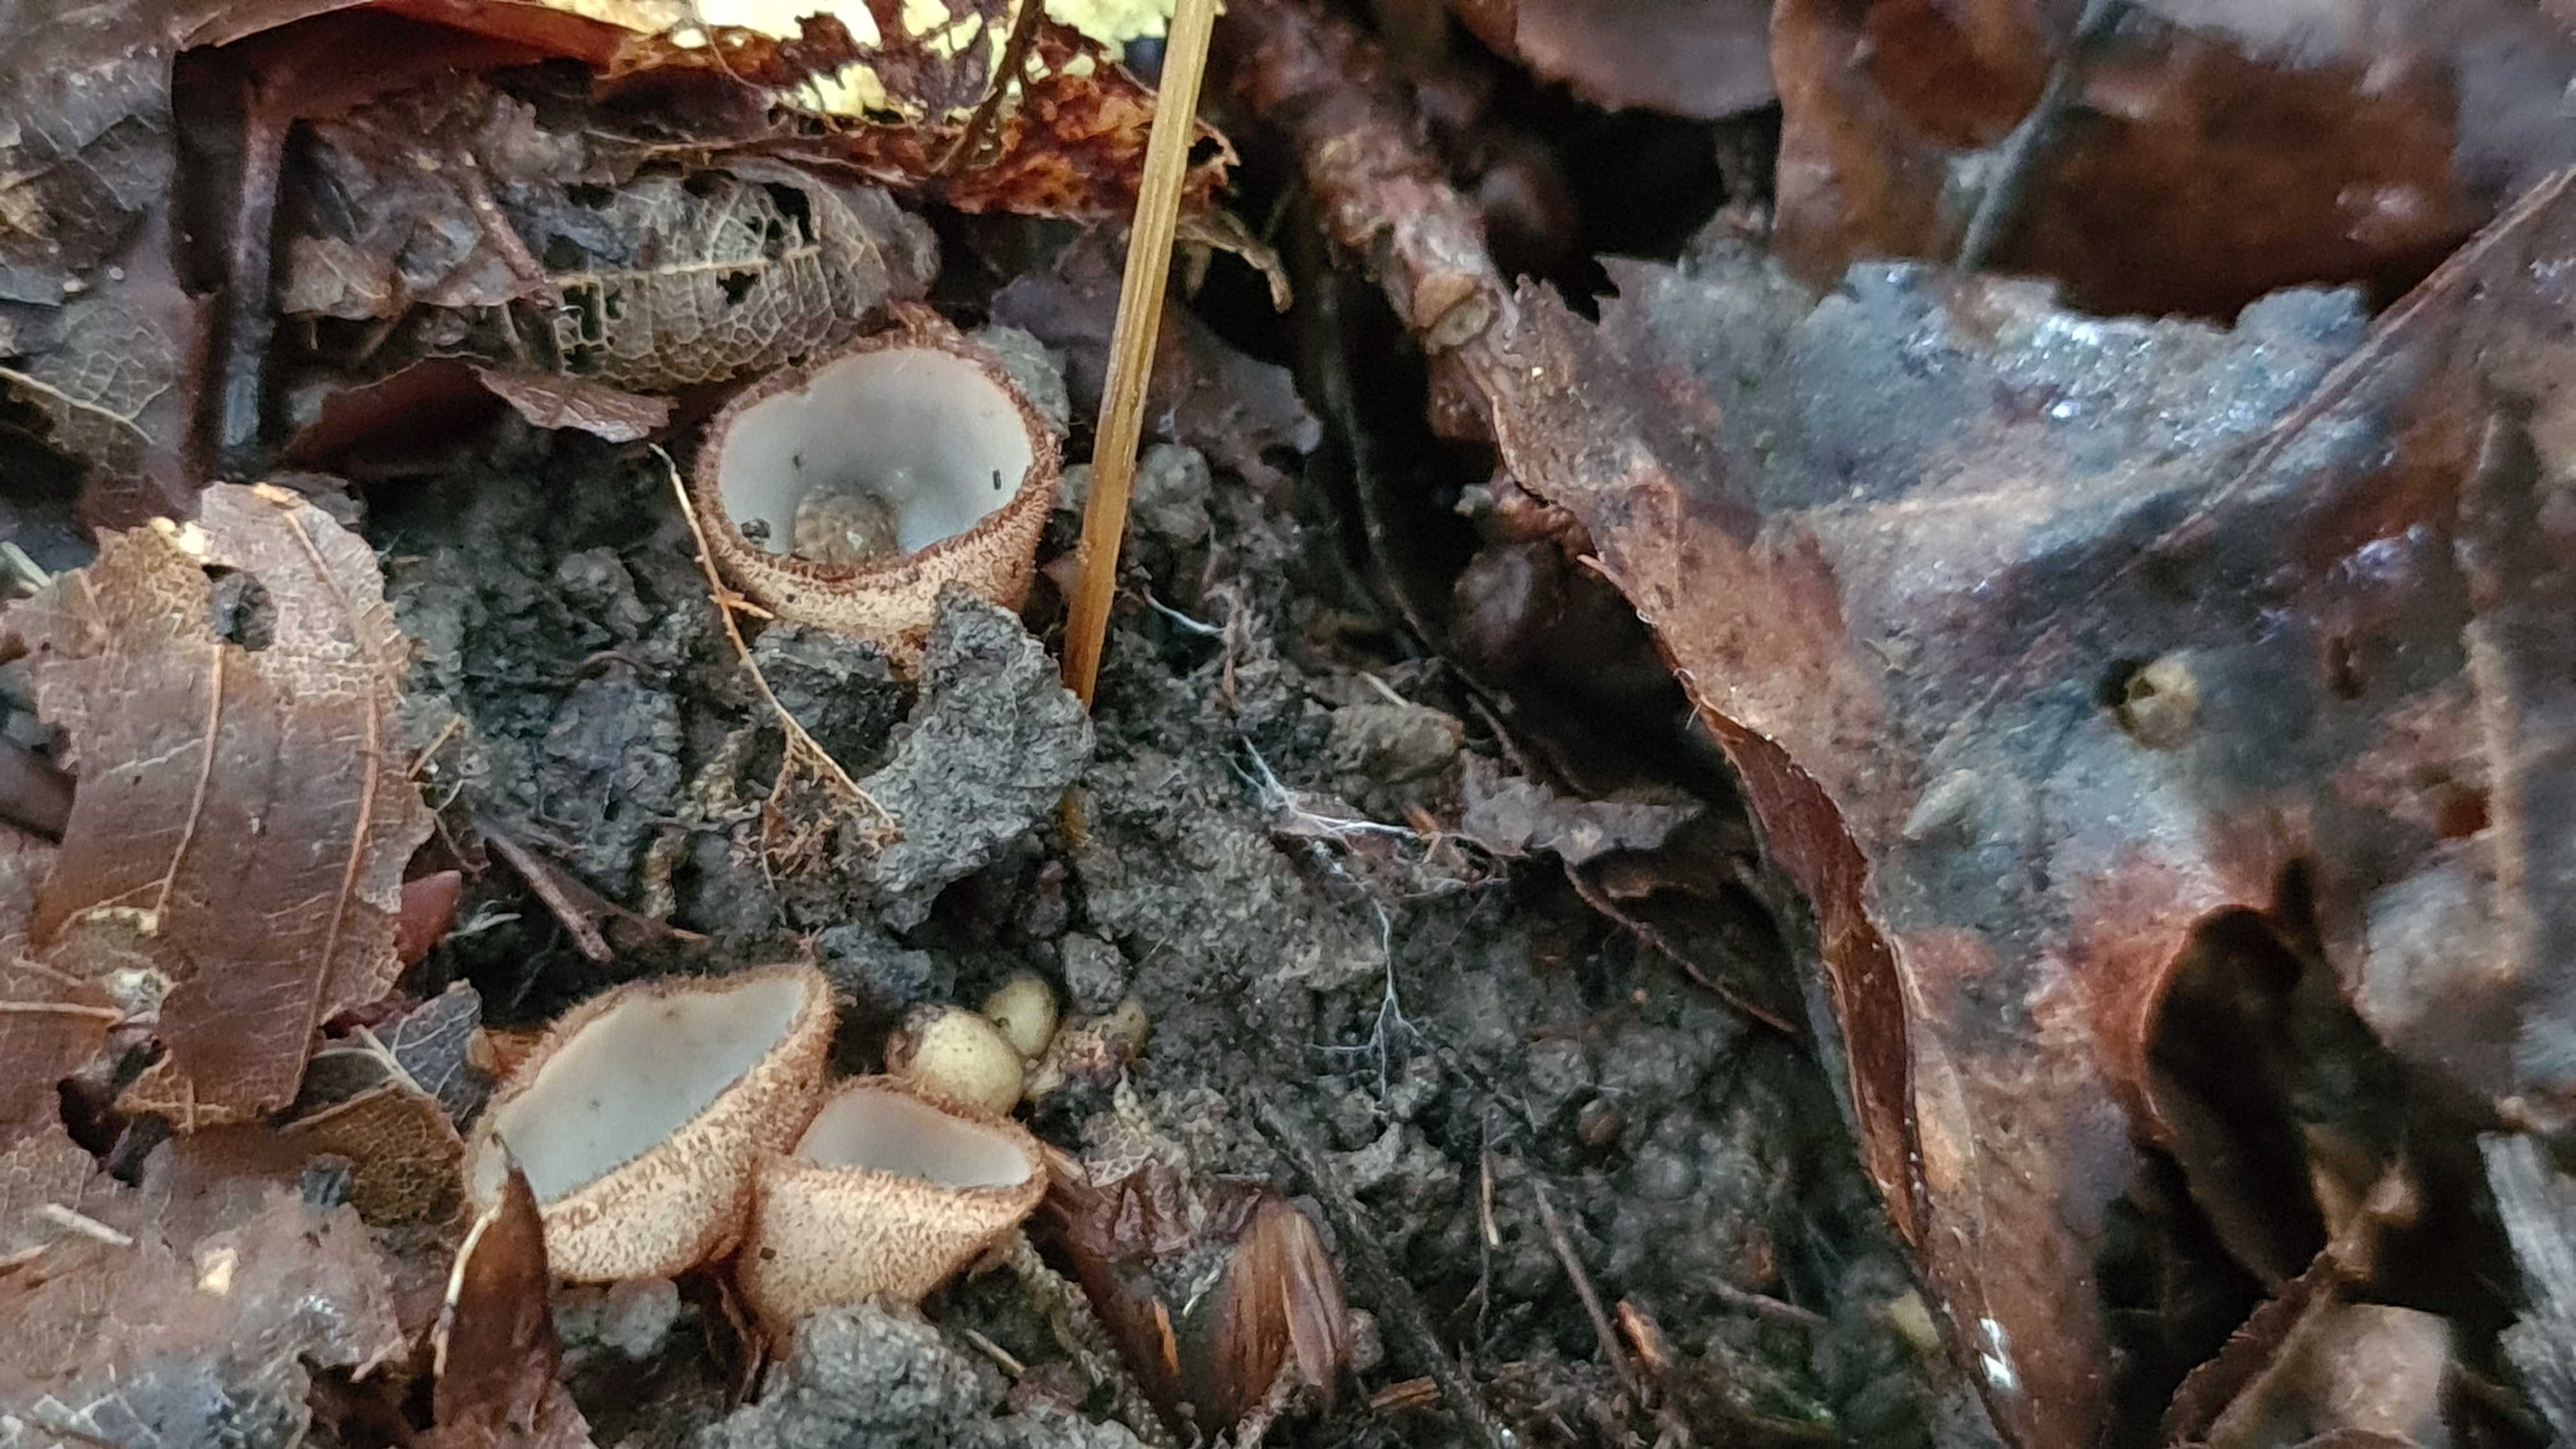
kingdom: Fungi
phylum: Ascomycota
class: Pezizomycetes
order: Pezizales
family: Pyronemataceae
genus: Humaria
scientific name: Humaria hemisphaerica
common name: halvkugleformet børstebæger
